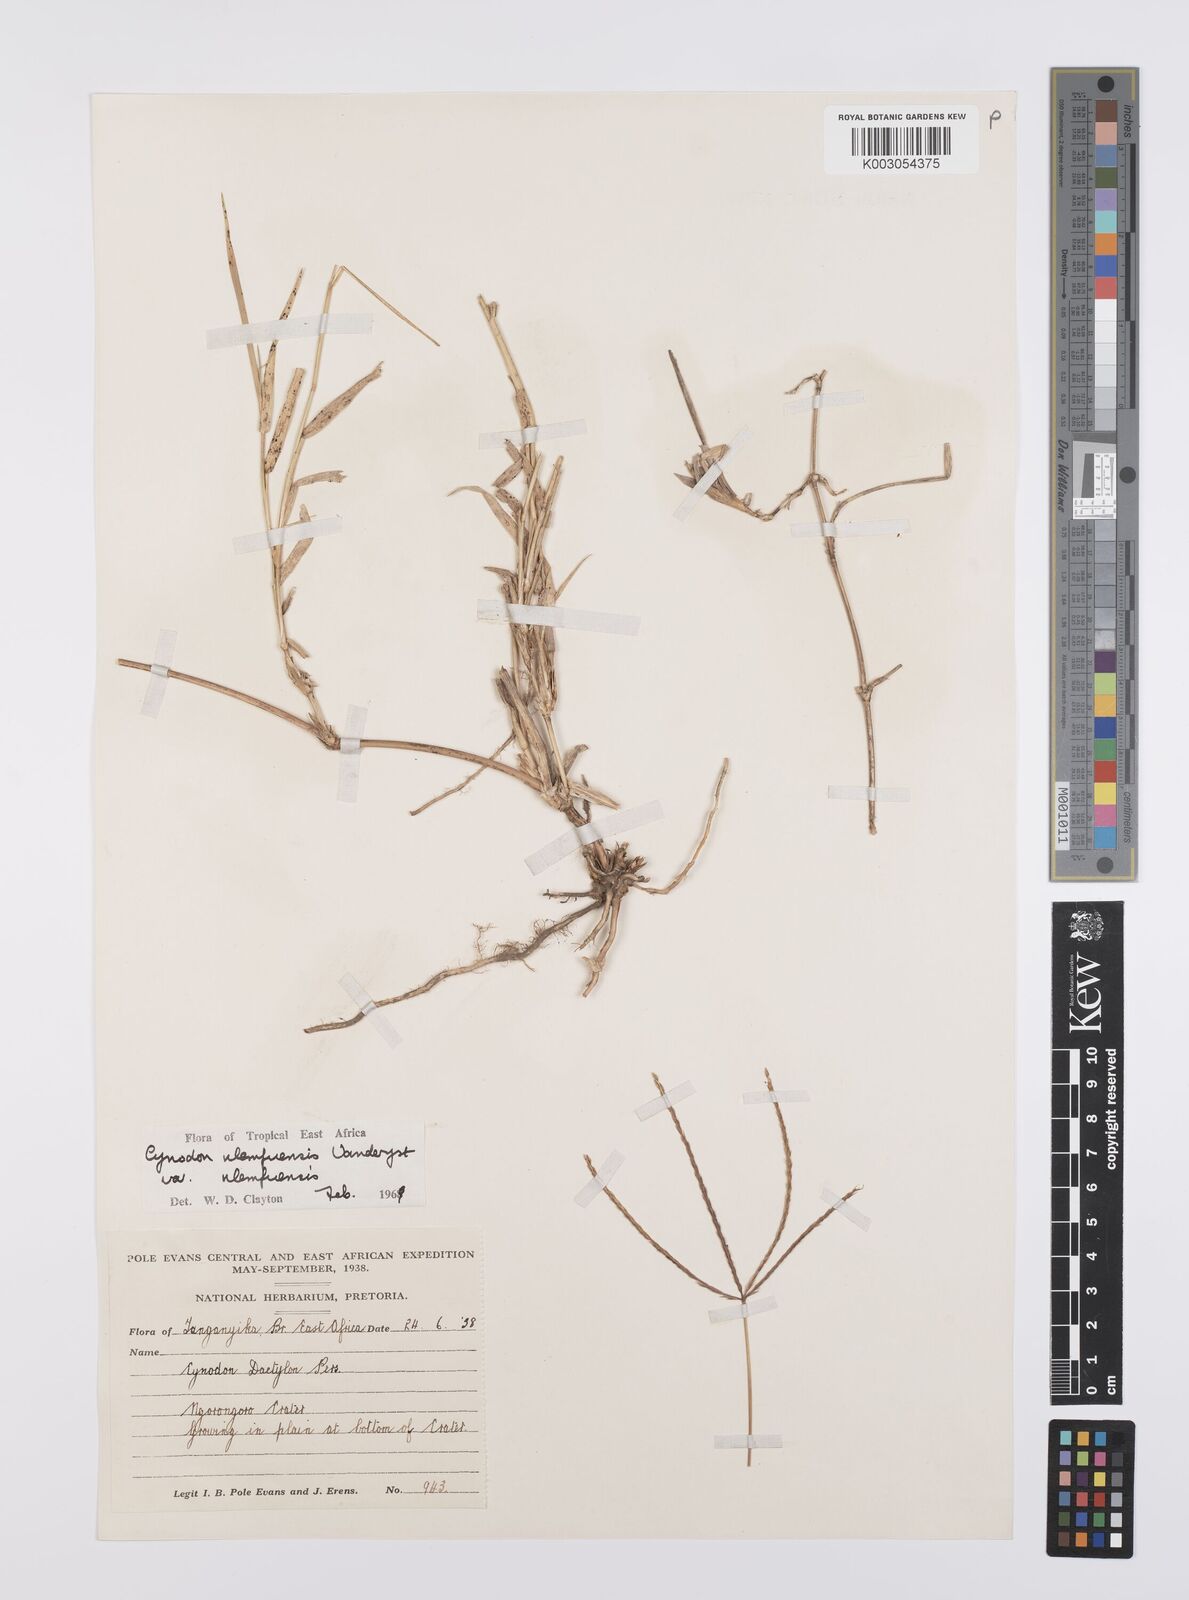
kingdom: Plantae
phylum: Tracheophyta
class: Liliopsida
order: Poales
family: Poaceae
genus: Cynodon
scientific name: Cynodon nlemfuensis
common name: African bermudagrass
